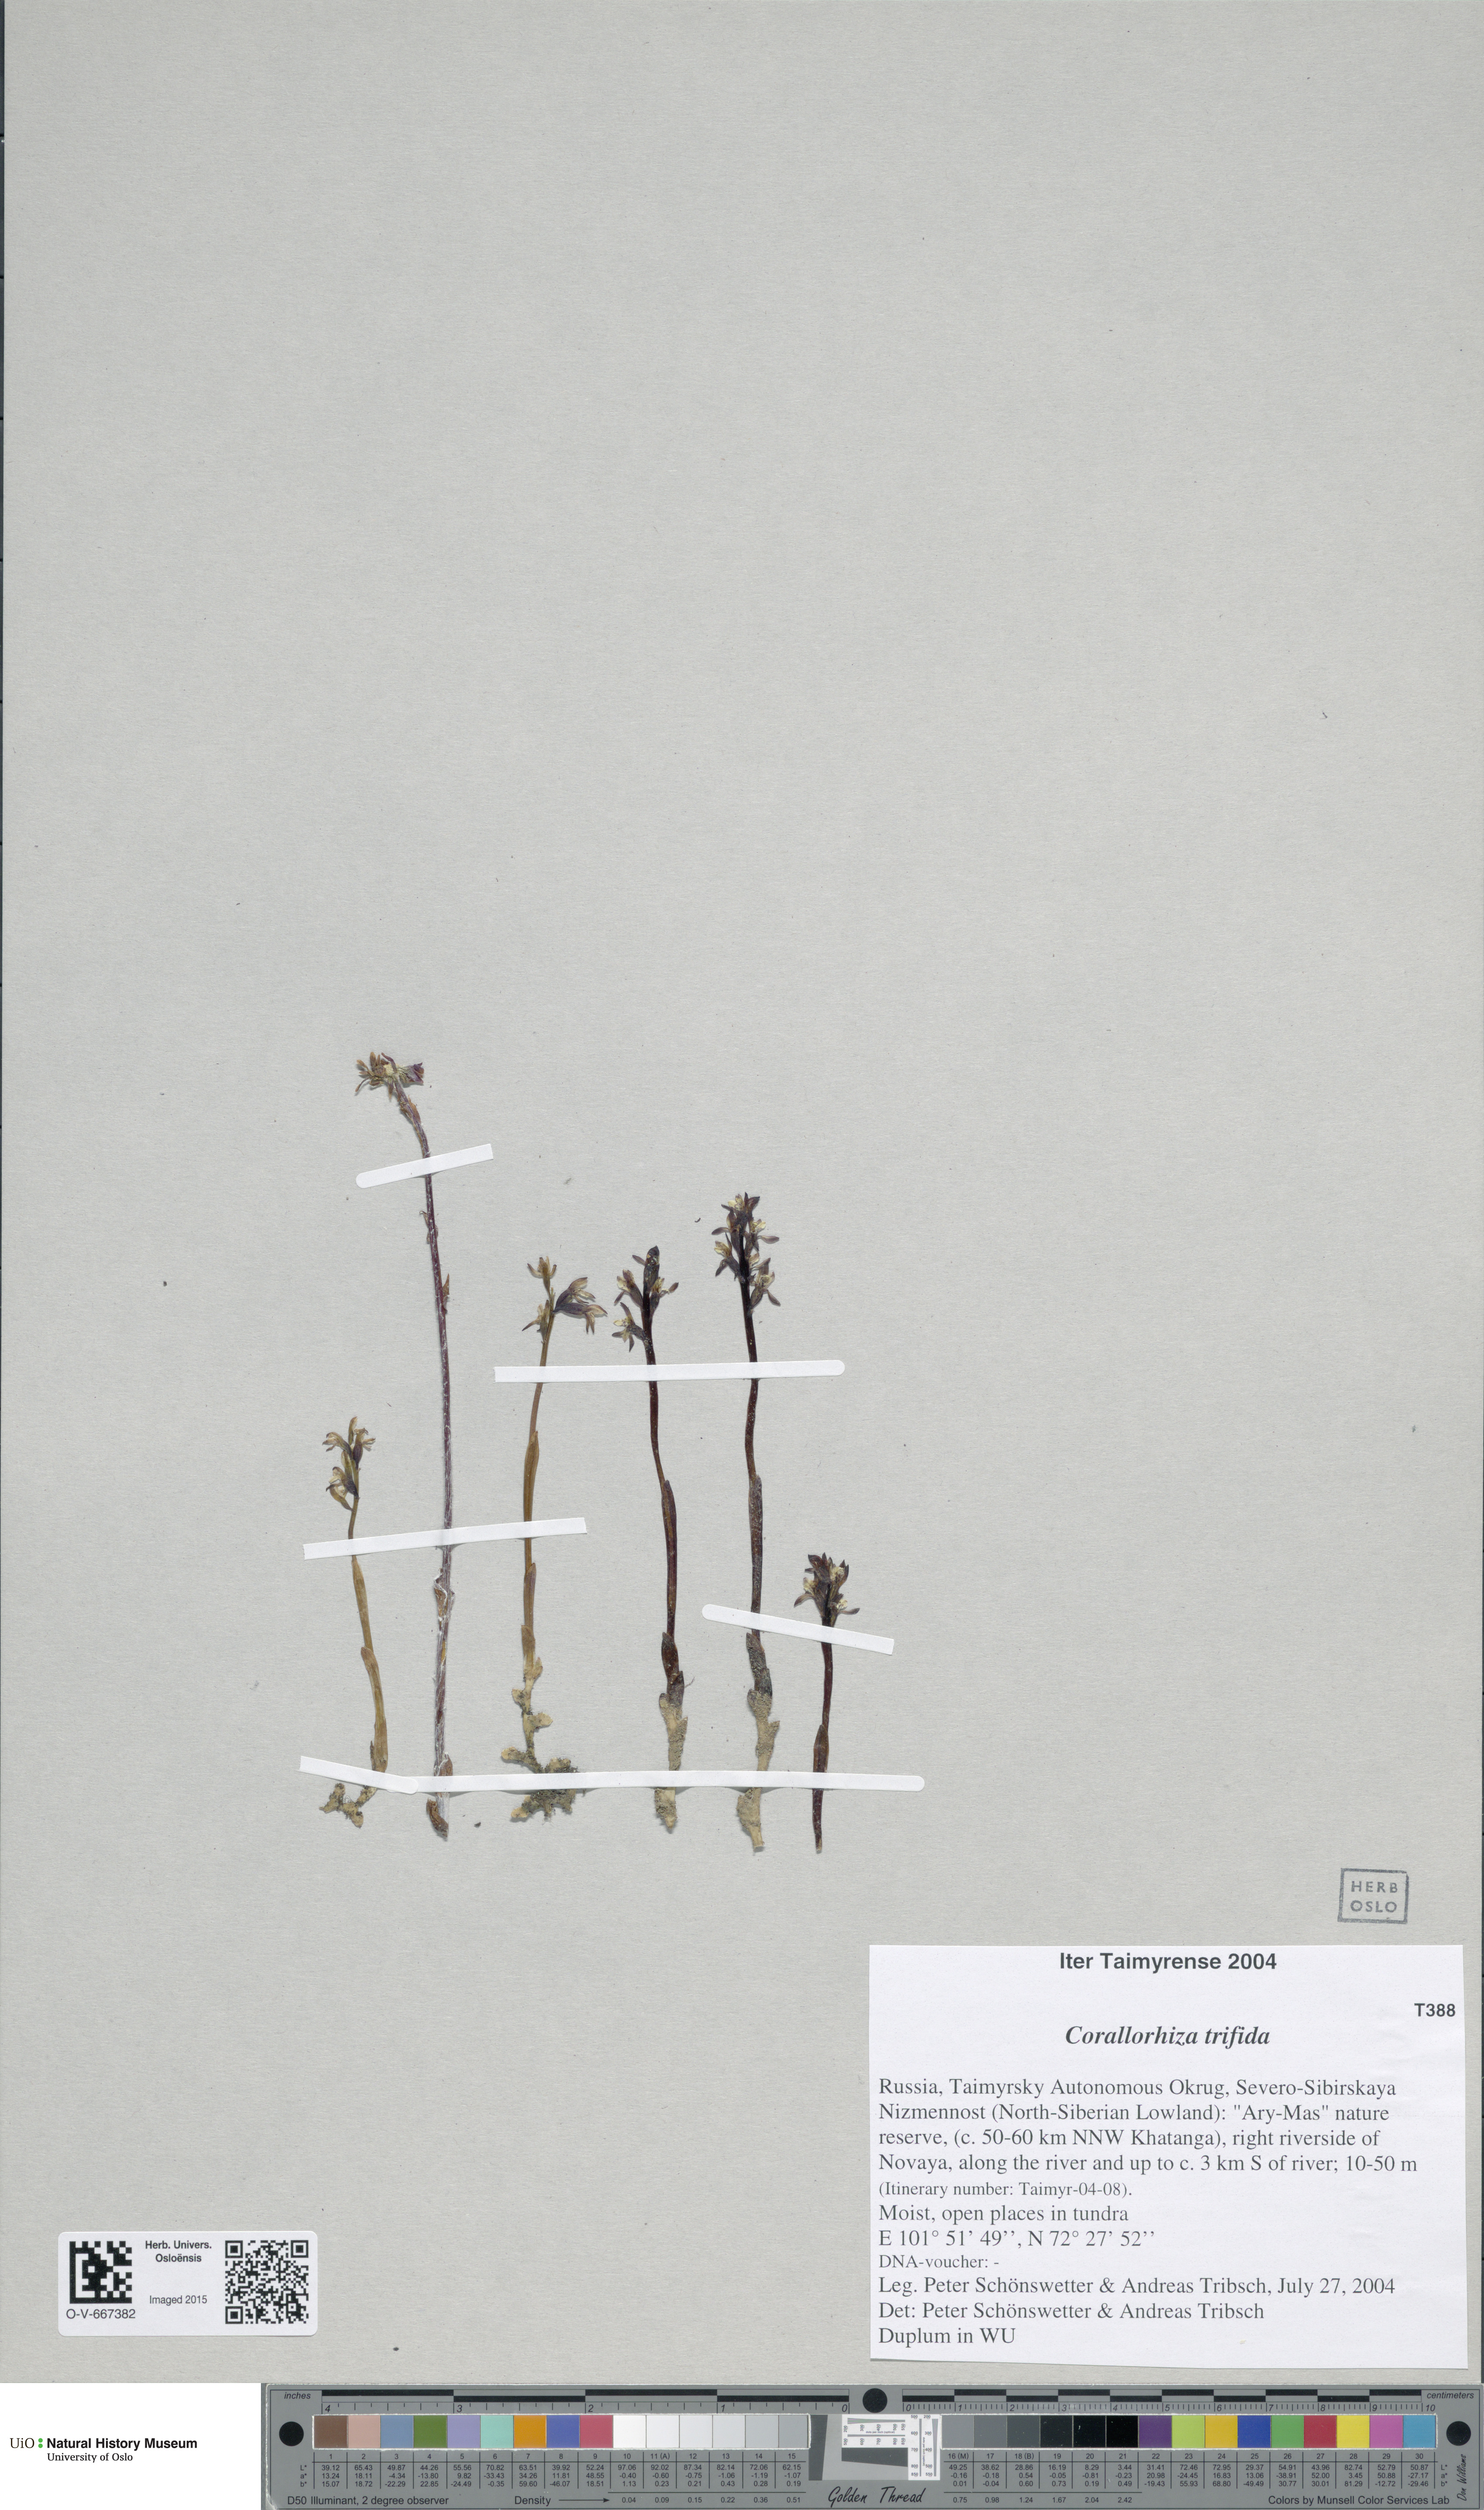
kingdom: Plantae
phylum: Tracheophyta
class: Liliopsida
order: Asparagales
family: Orchidaceae
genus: Corallorhiza
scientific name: Corallorhiza trifida
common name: Yellow coralroot
